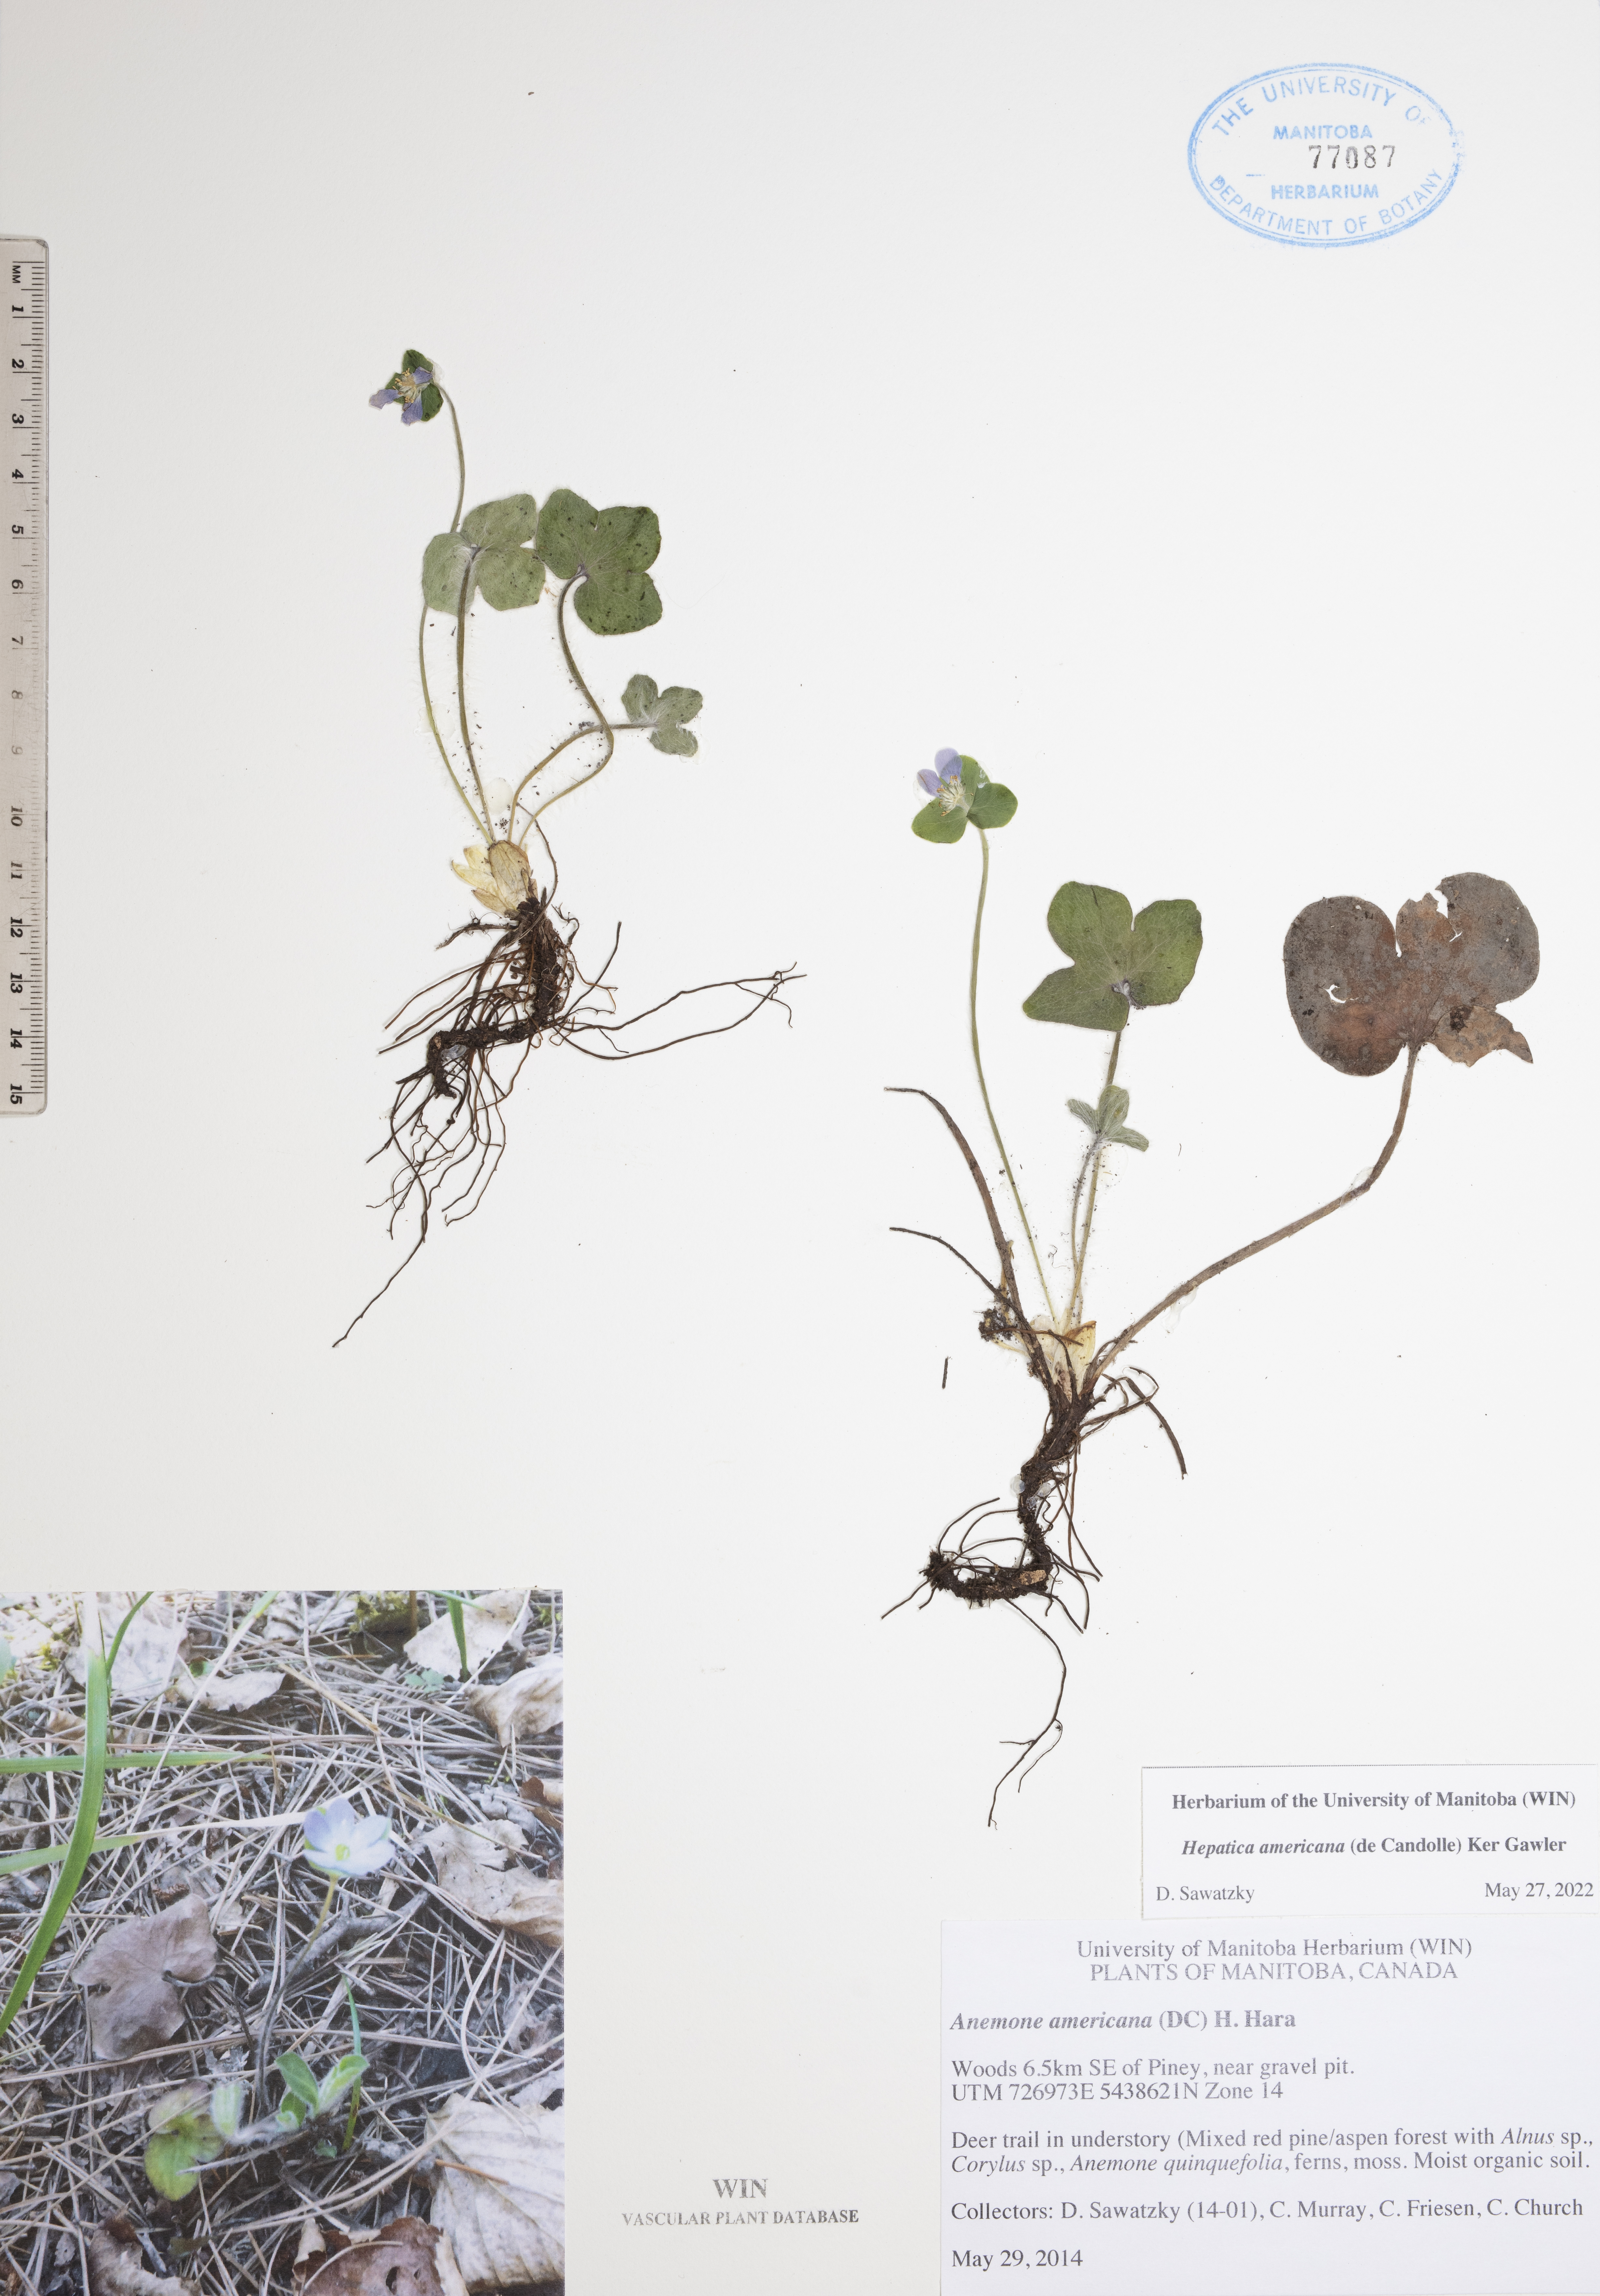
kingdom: Plantae
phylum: Tracheophyta
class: Magnoliopsida
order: Ranunculales
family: Ranunculaceae
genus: Hepatica
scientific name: Hepatica americana
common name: American hepatica
